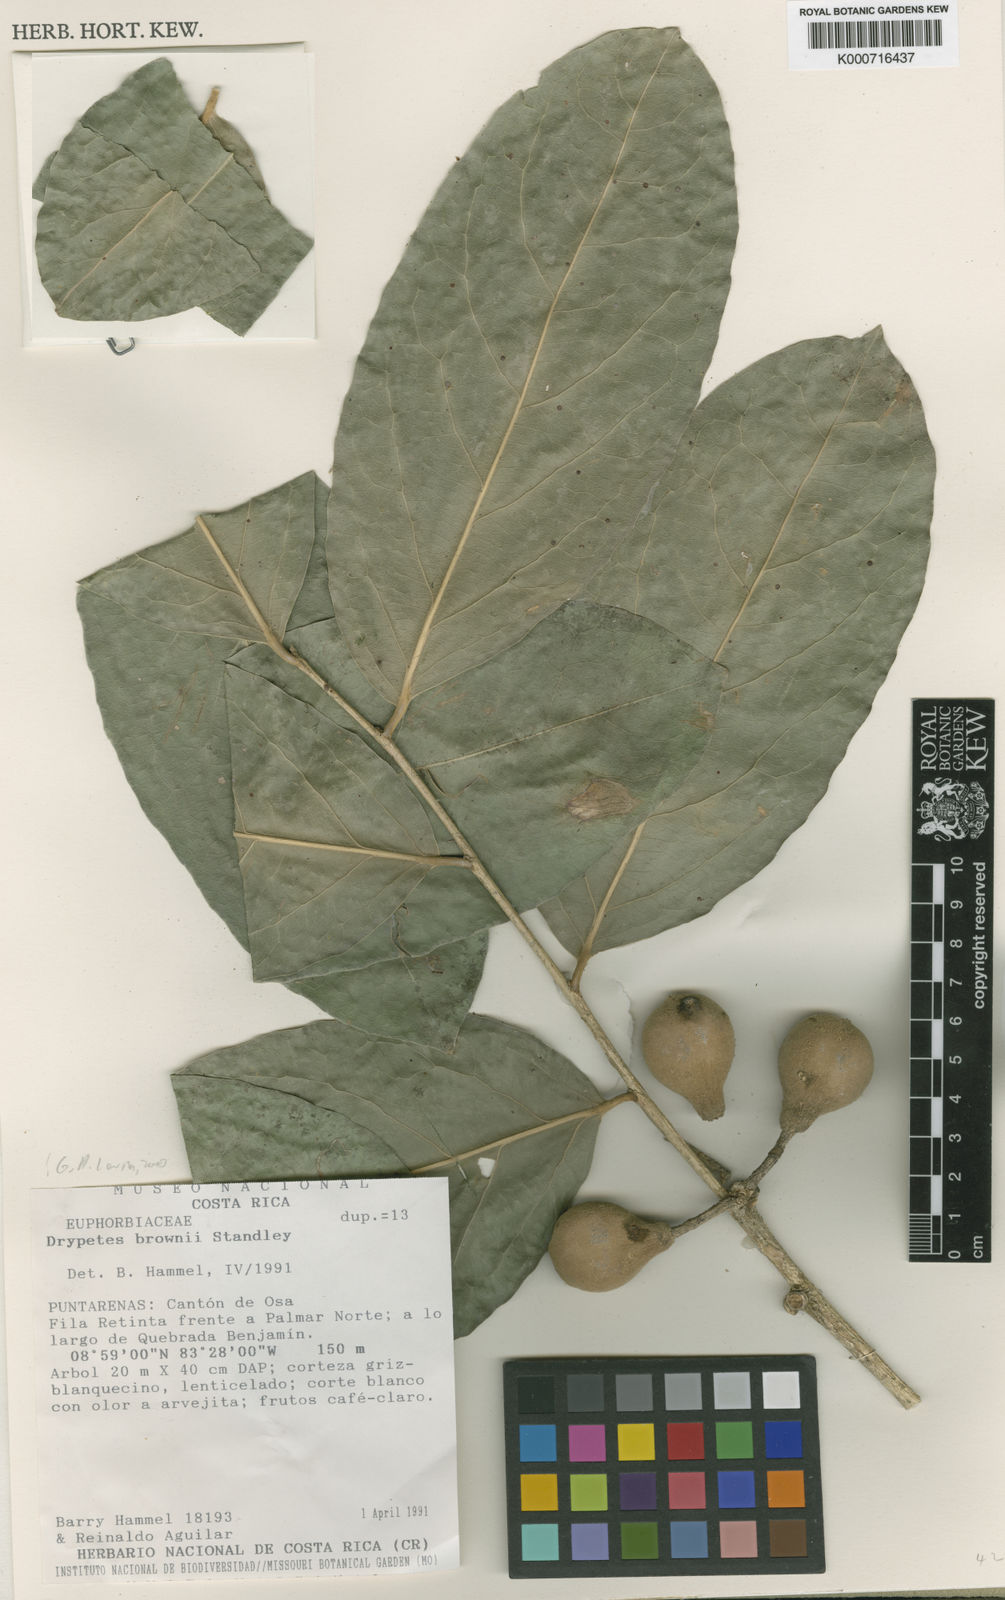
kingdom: Plantae
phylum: Tracheophyta
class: Magnoliopsida
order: Malpighiales
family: Putranjivaceae
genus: Drypetes
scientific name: Drypetes brownii
